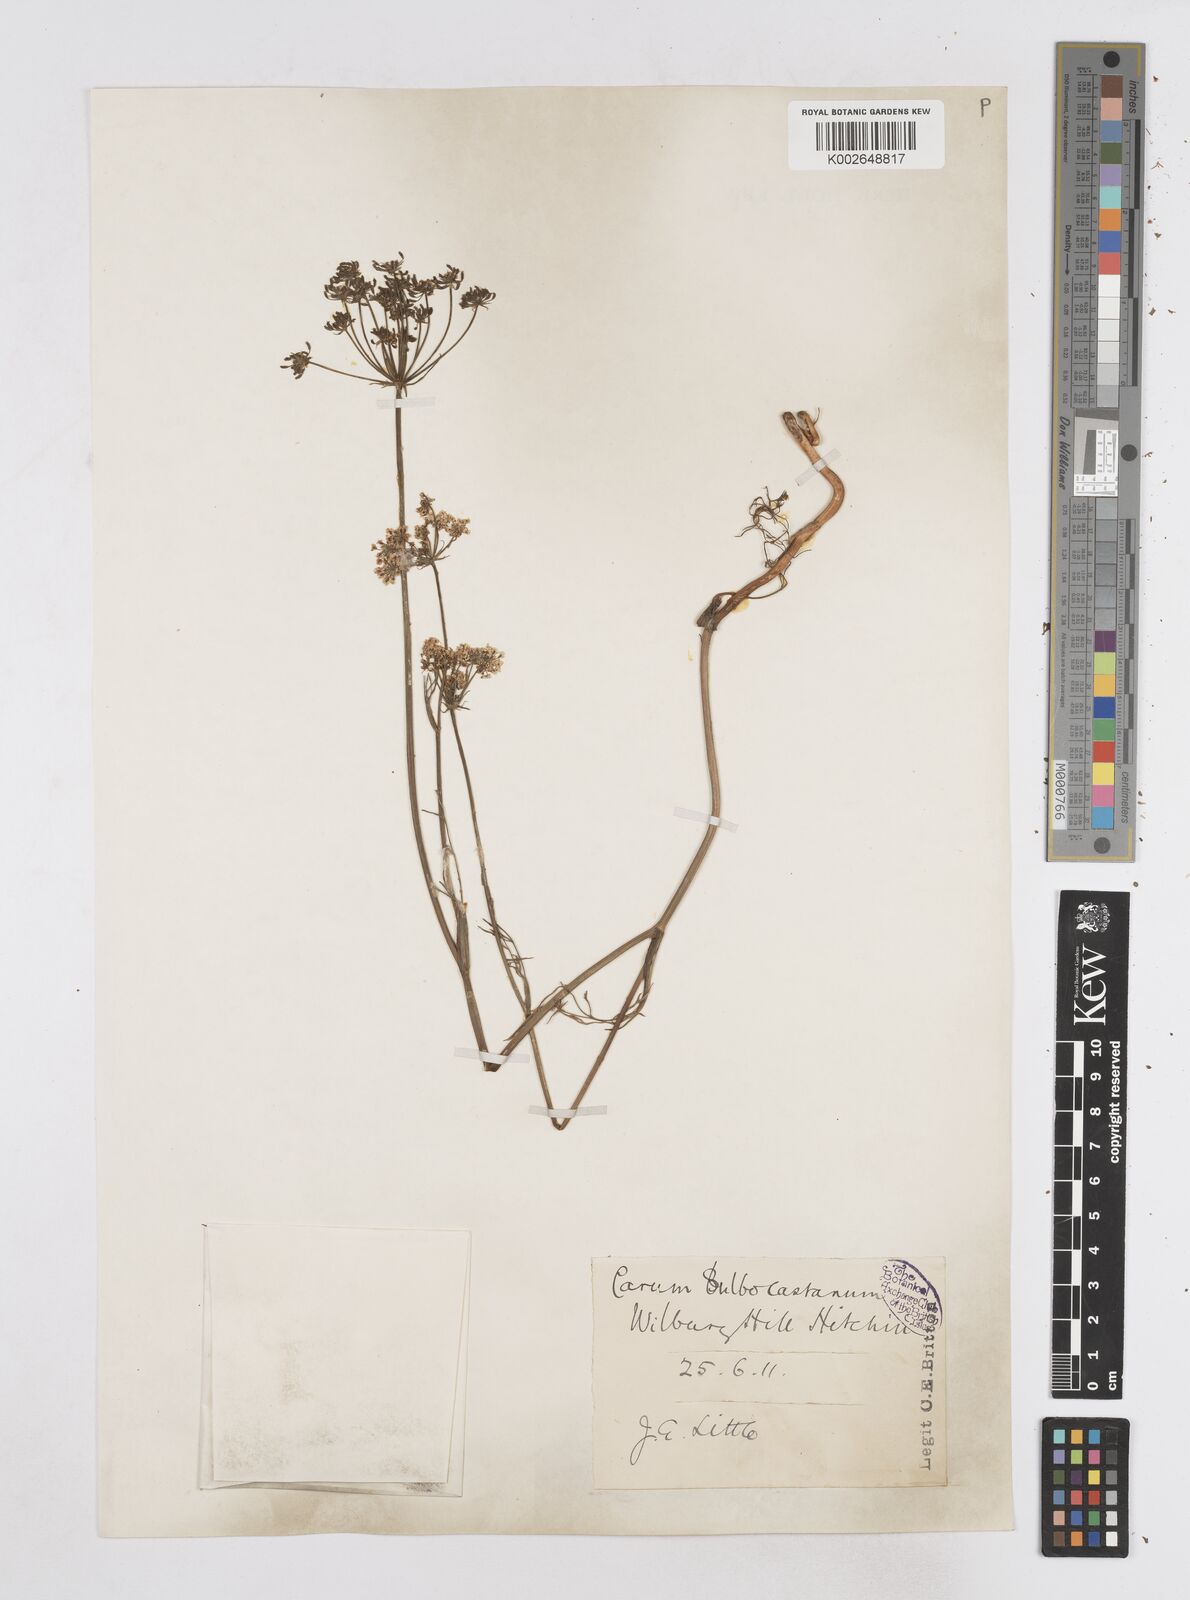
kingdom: Plantae
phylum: Tracheophyta
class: Magnoliopsida
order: Apiales
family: Apiaceae
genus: Bunium
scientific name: Bunium bulbocastanum
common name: Great pignut
